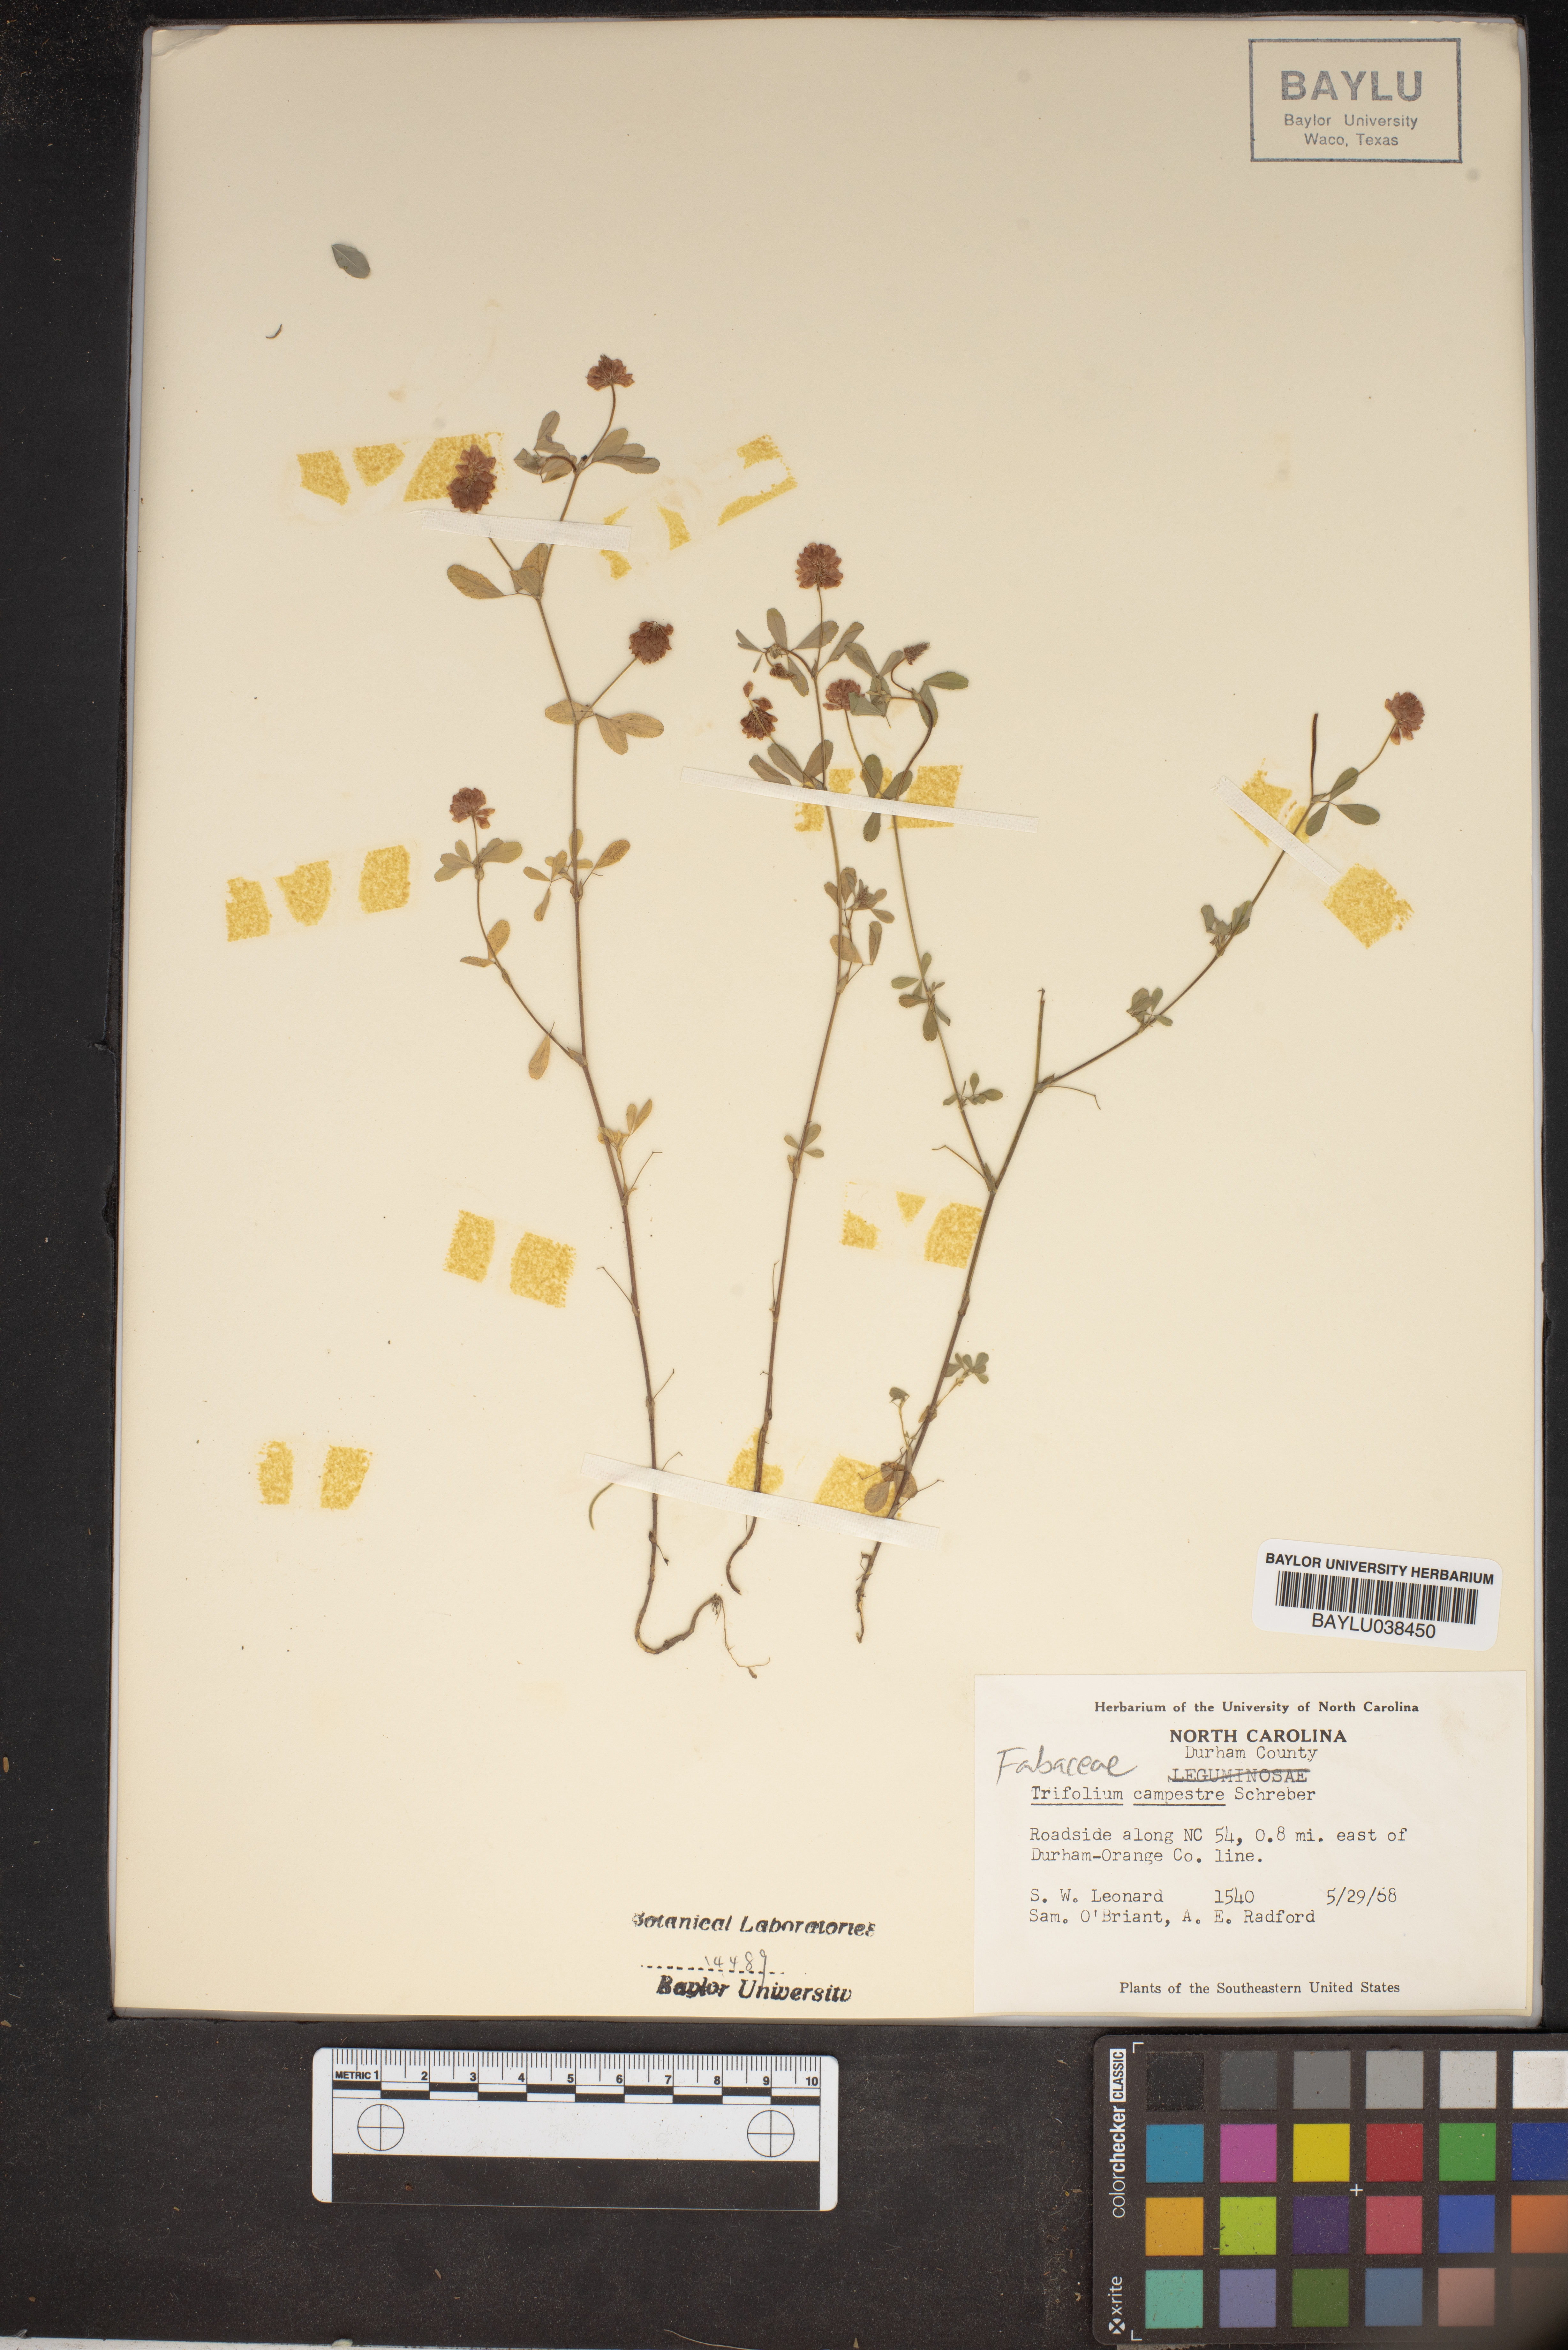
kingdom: Plantae
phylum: Tracheophyta
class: Magnoliopsida
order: Fabales
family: Fabaceae
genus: Trifolium
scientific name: Trifolium campestre
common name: Field clover
